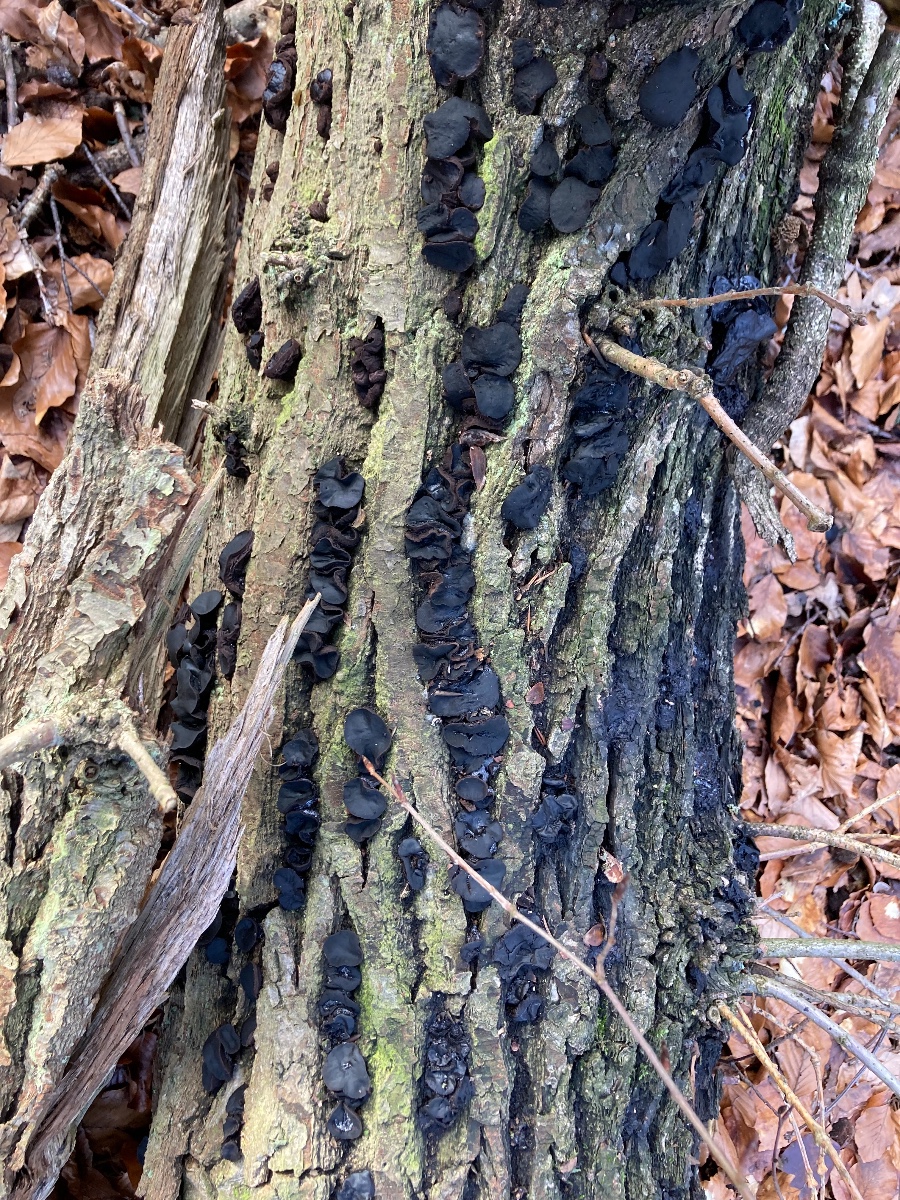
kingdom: Fungi
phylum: Ascomycota
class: Leotiomycetes
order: Phacidiales
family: Phacidiaceae
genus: Bulgaria
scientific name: Bulgaria inquinans
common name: afsmittende topsvamp
